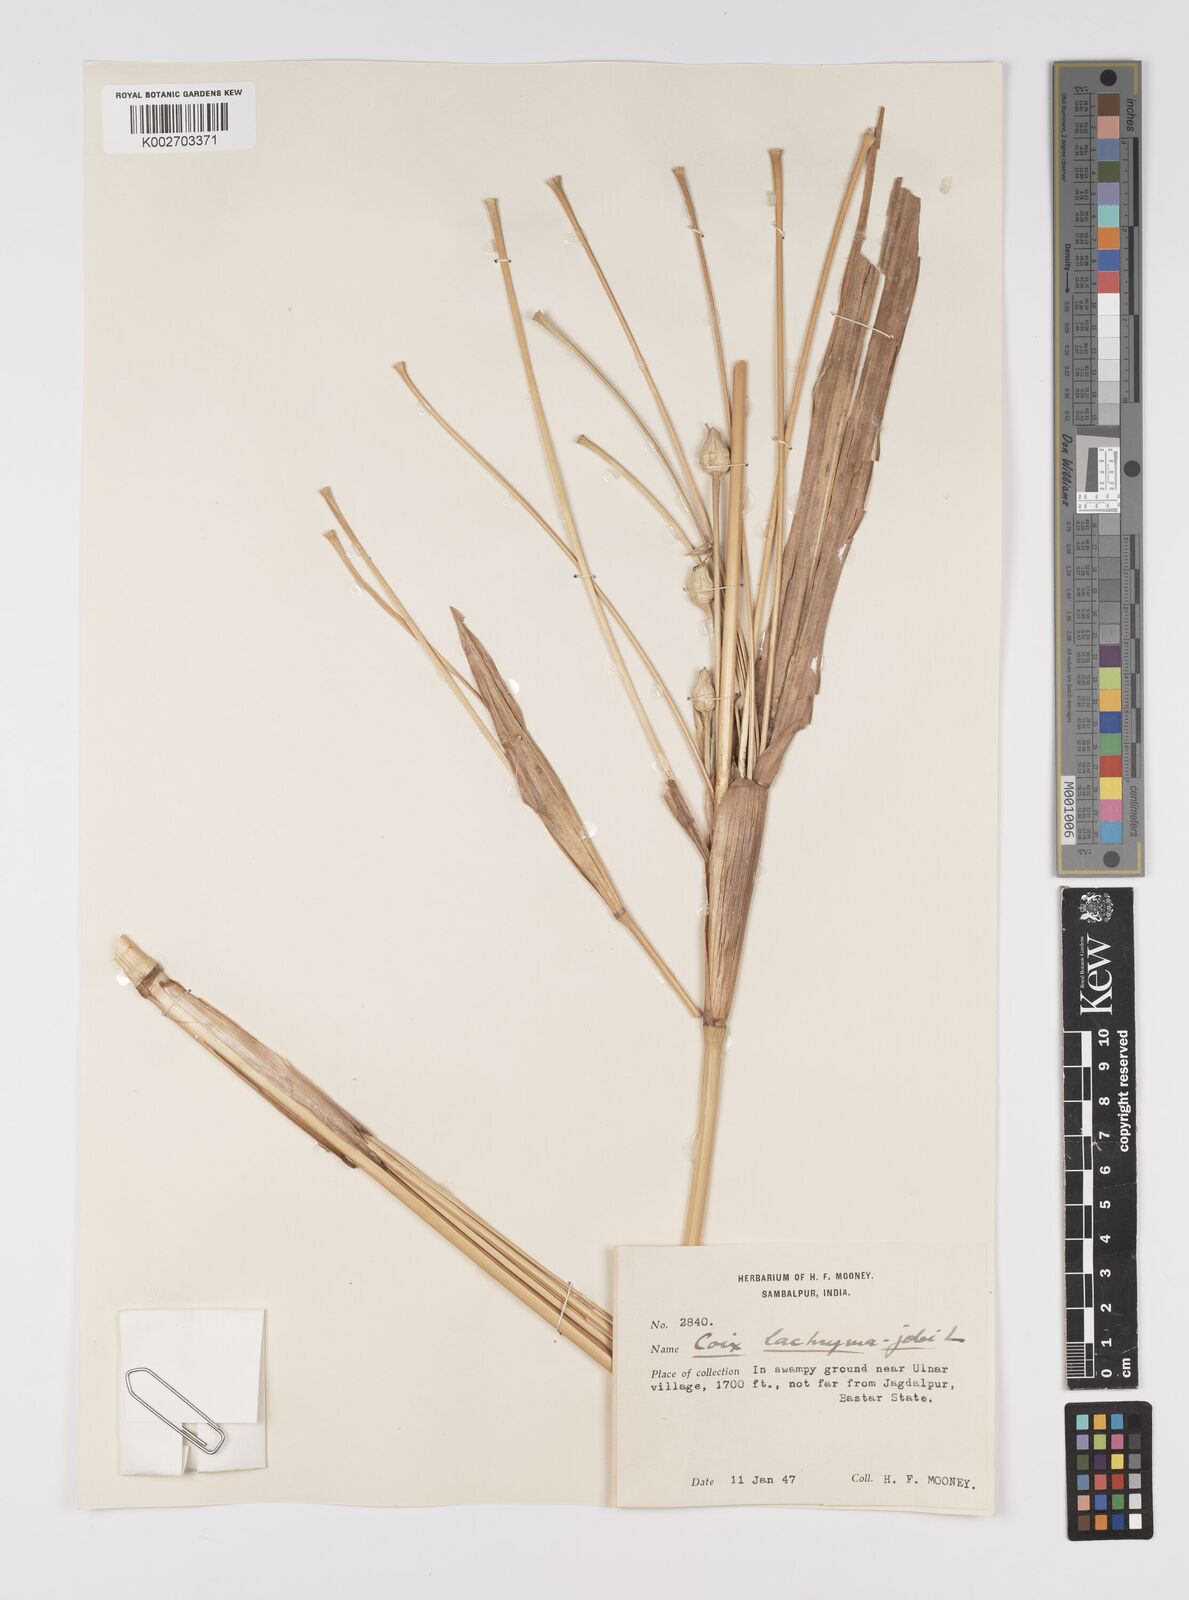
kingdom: Plantae
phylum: Tracheophyta
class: Liliopsida
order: Poales
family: Poaceae
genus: Coix
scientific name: Coix lacryma-jobi
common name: Job's tears
